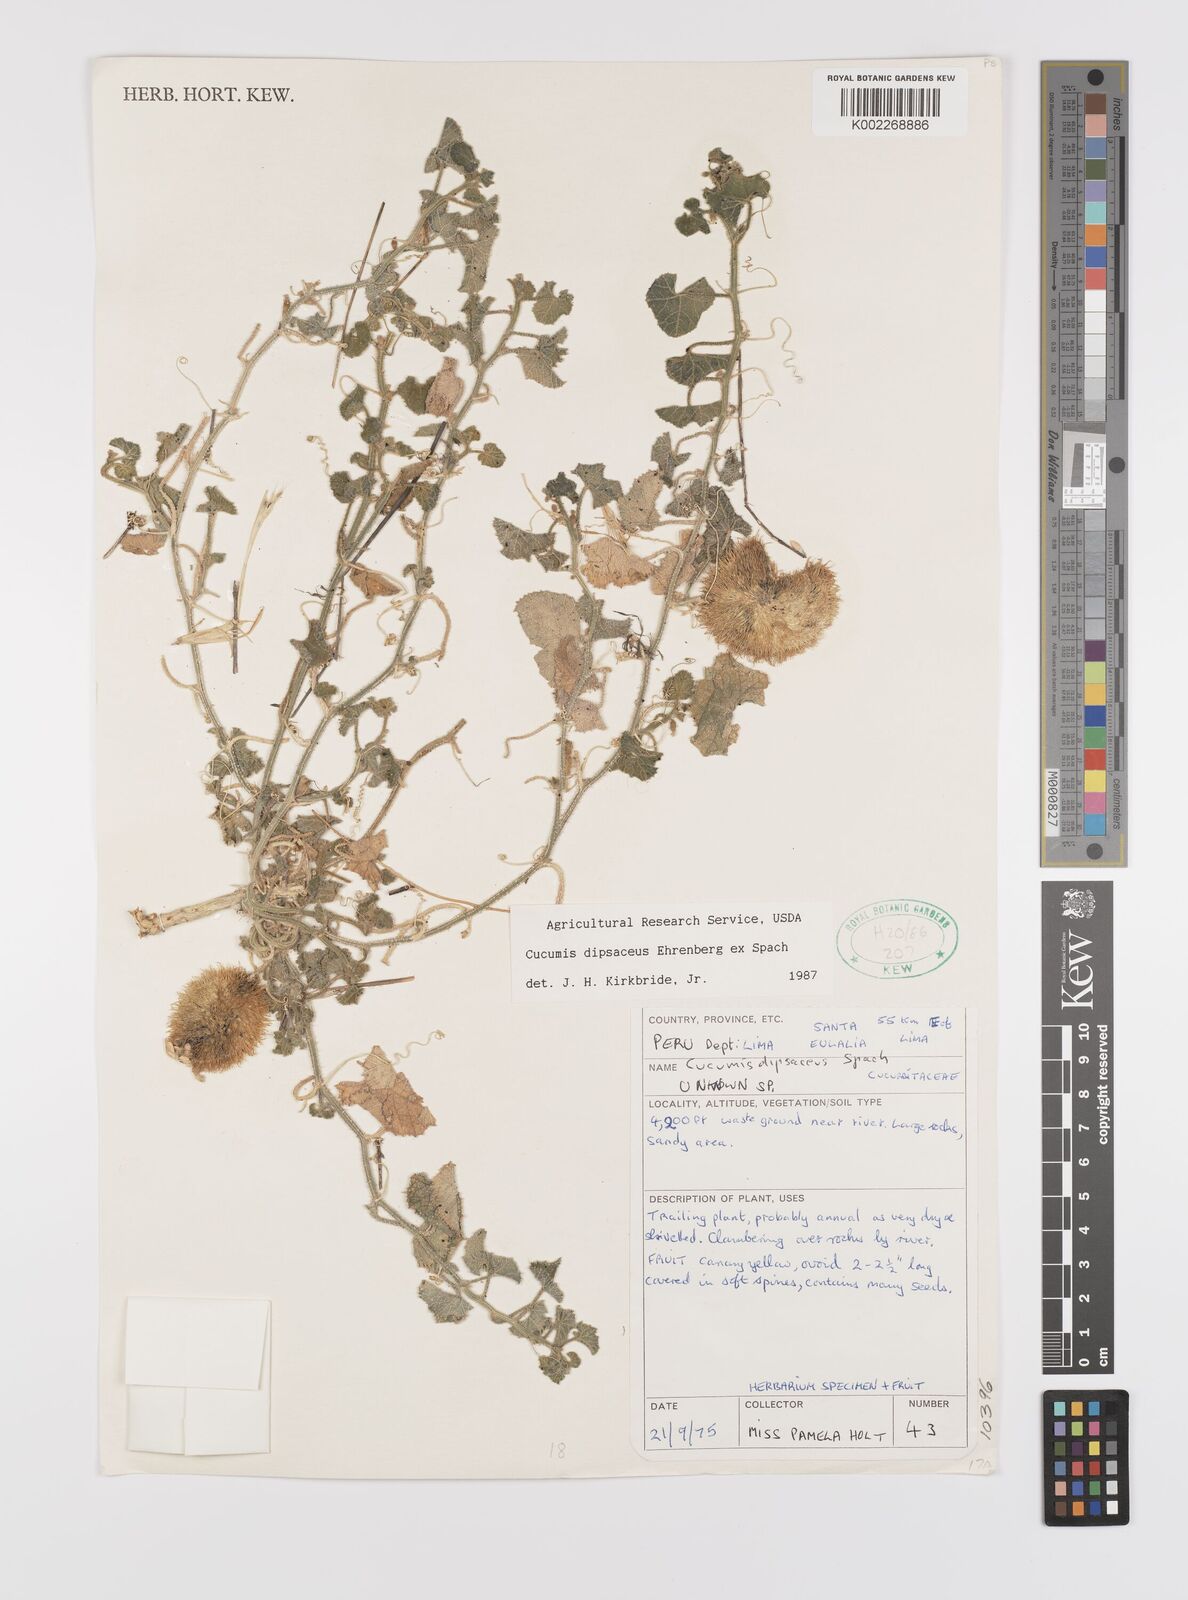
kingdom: Plantae
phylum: Tracheophyta
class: Magnoliopsida
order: Cucurbitales
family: Cucurbitaceae
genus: Cucumis
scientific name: Cucumis
